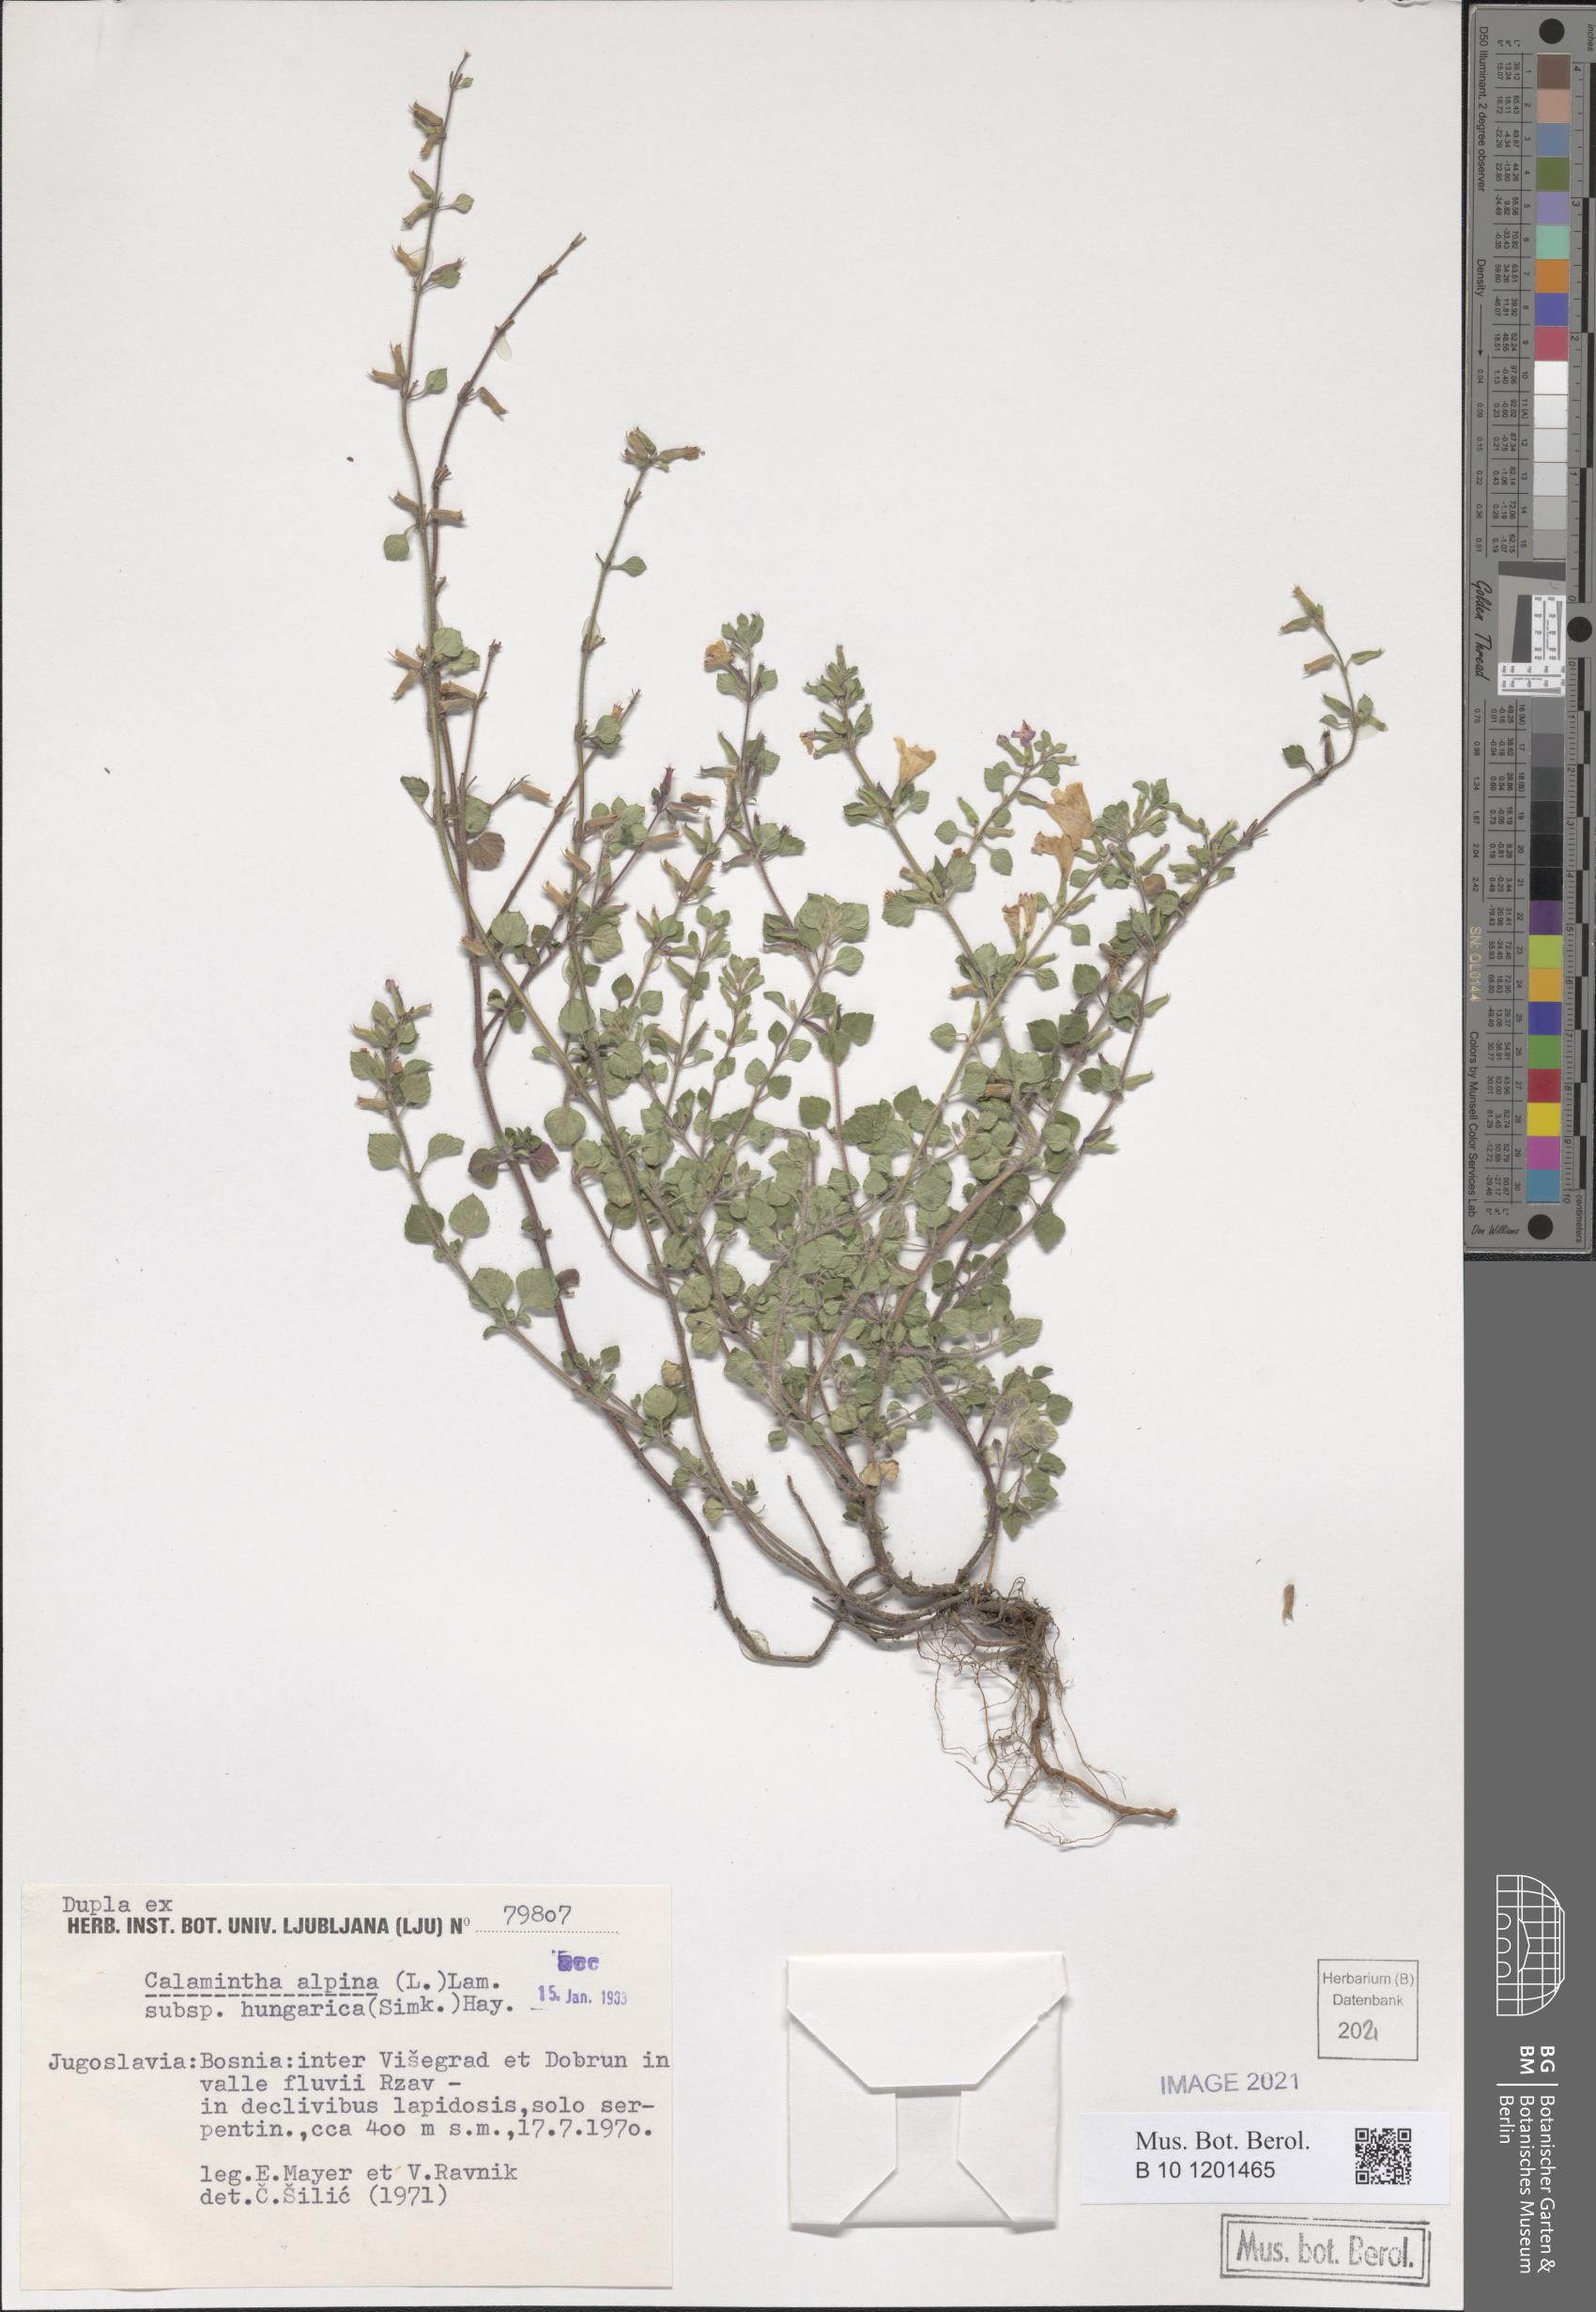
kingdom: Plantae
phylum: Tracheophyta
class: Magnoliopsida
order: Lamiales
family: Lamiaceae
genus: Clinopodium
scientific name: Clinopodium alpinum
